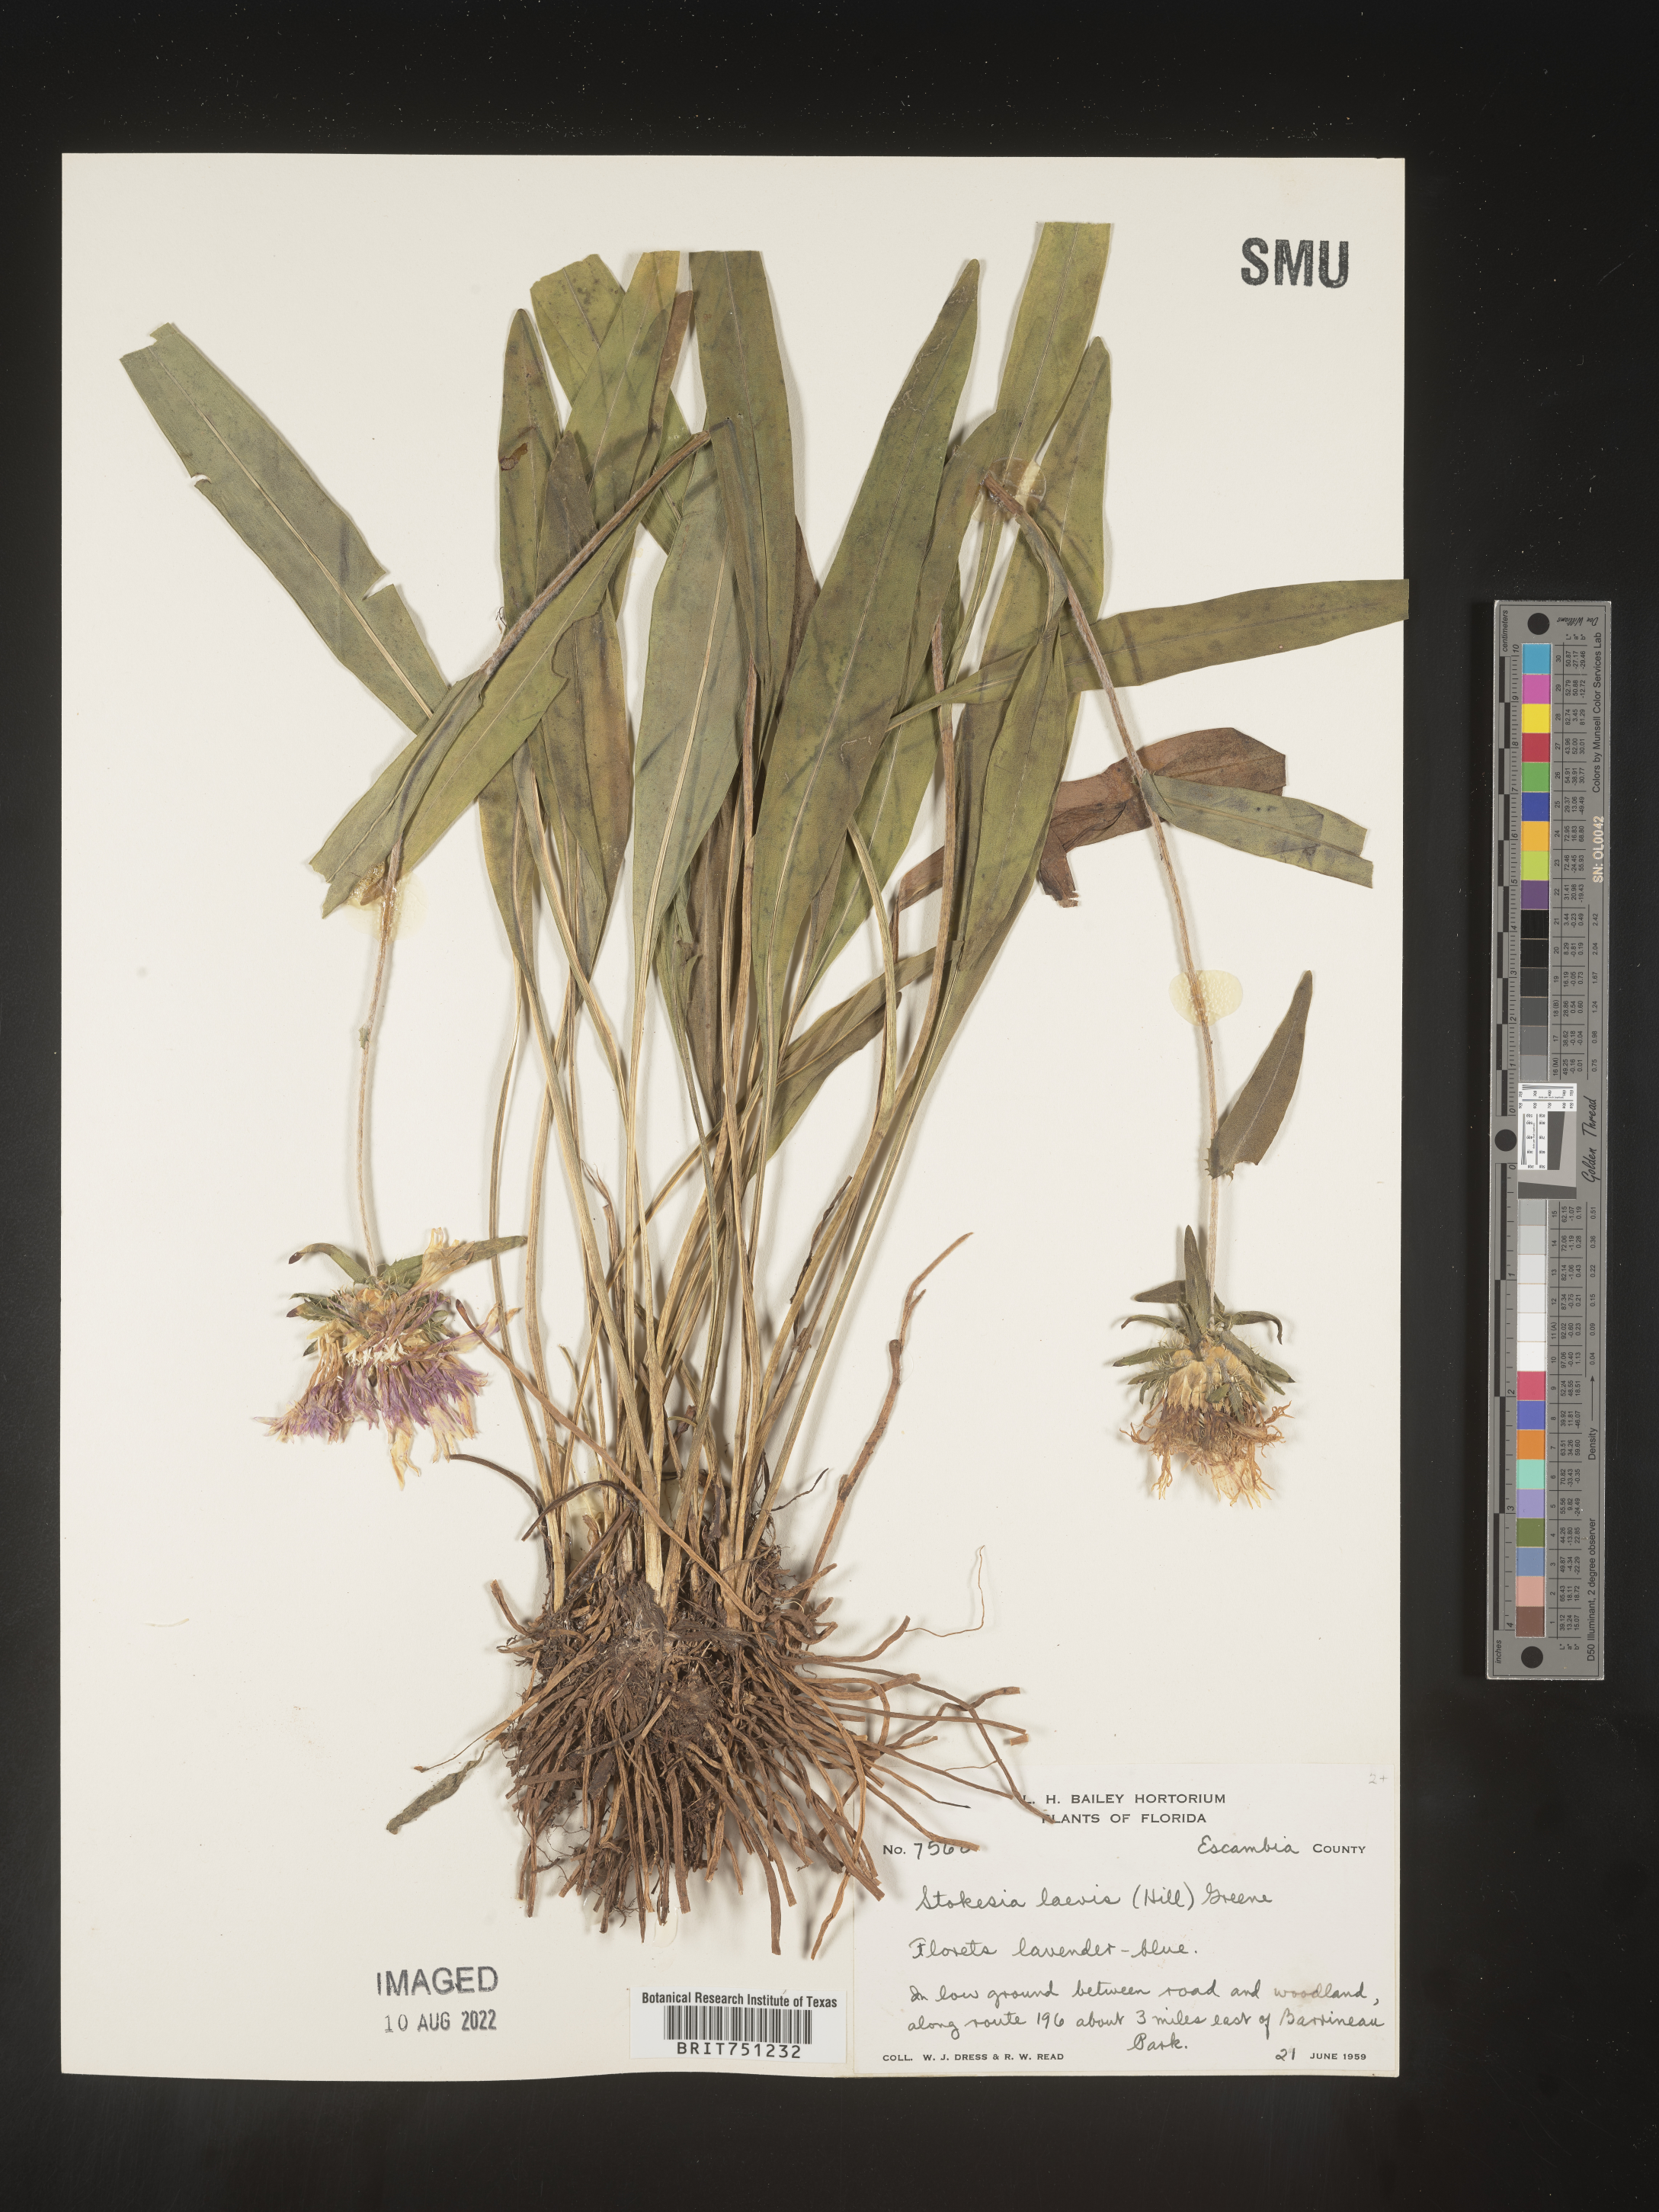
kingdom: Plantae
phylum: Tracheophyta
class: Magnoliopsida
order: Asterales
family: Asteraceae
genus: Stokesia
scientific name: Stokesia
